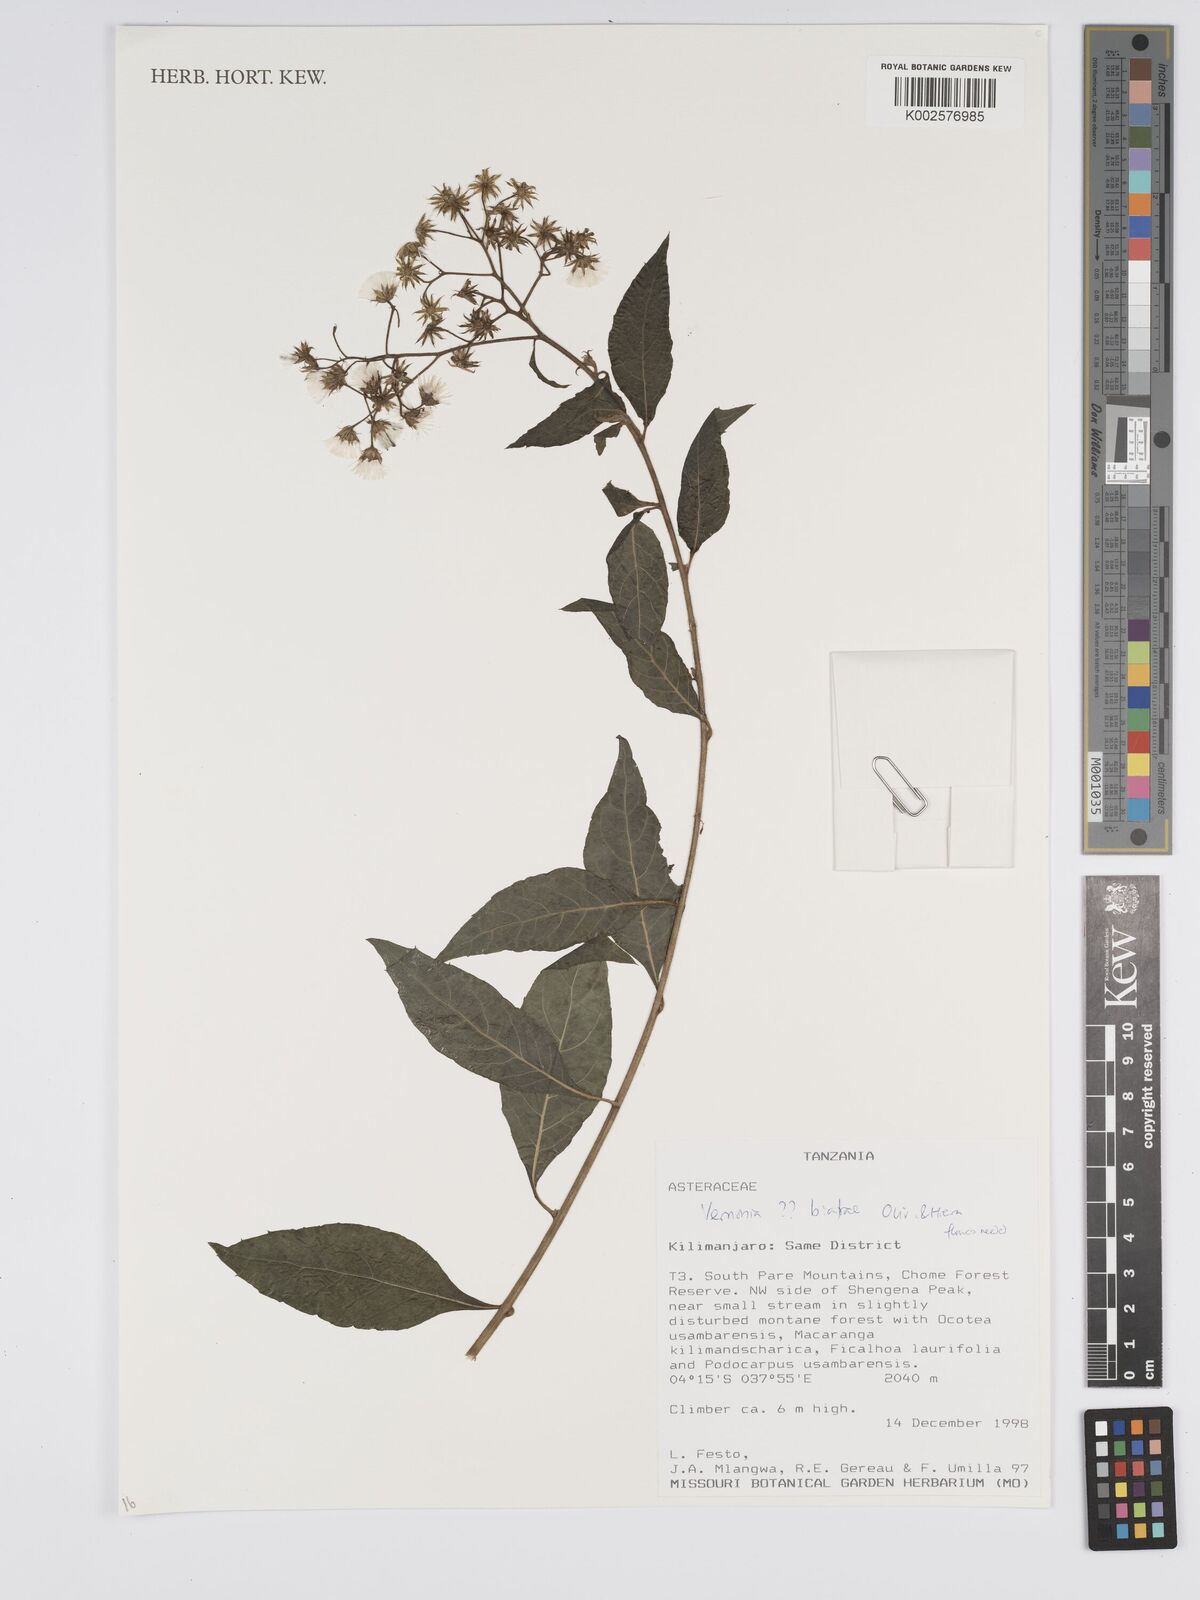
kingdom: Plantae
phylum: Tracheophyta
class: Magnoliopsida
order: Asterales
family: Asteraceae
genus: Distephanus
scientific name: Distephanus biafrae
